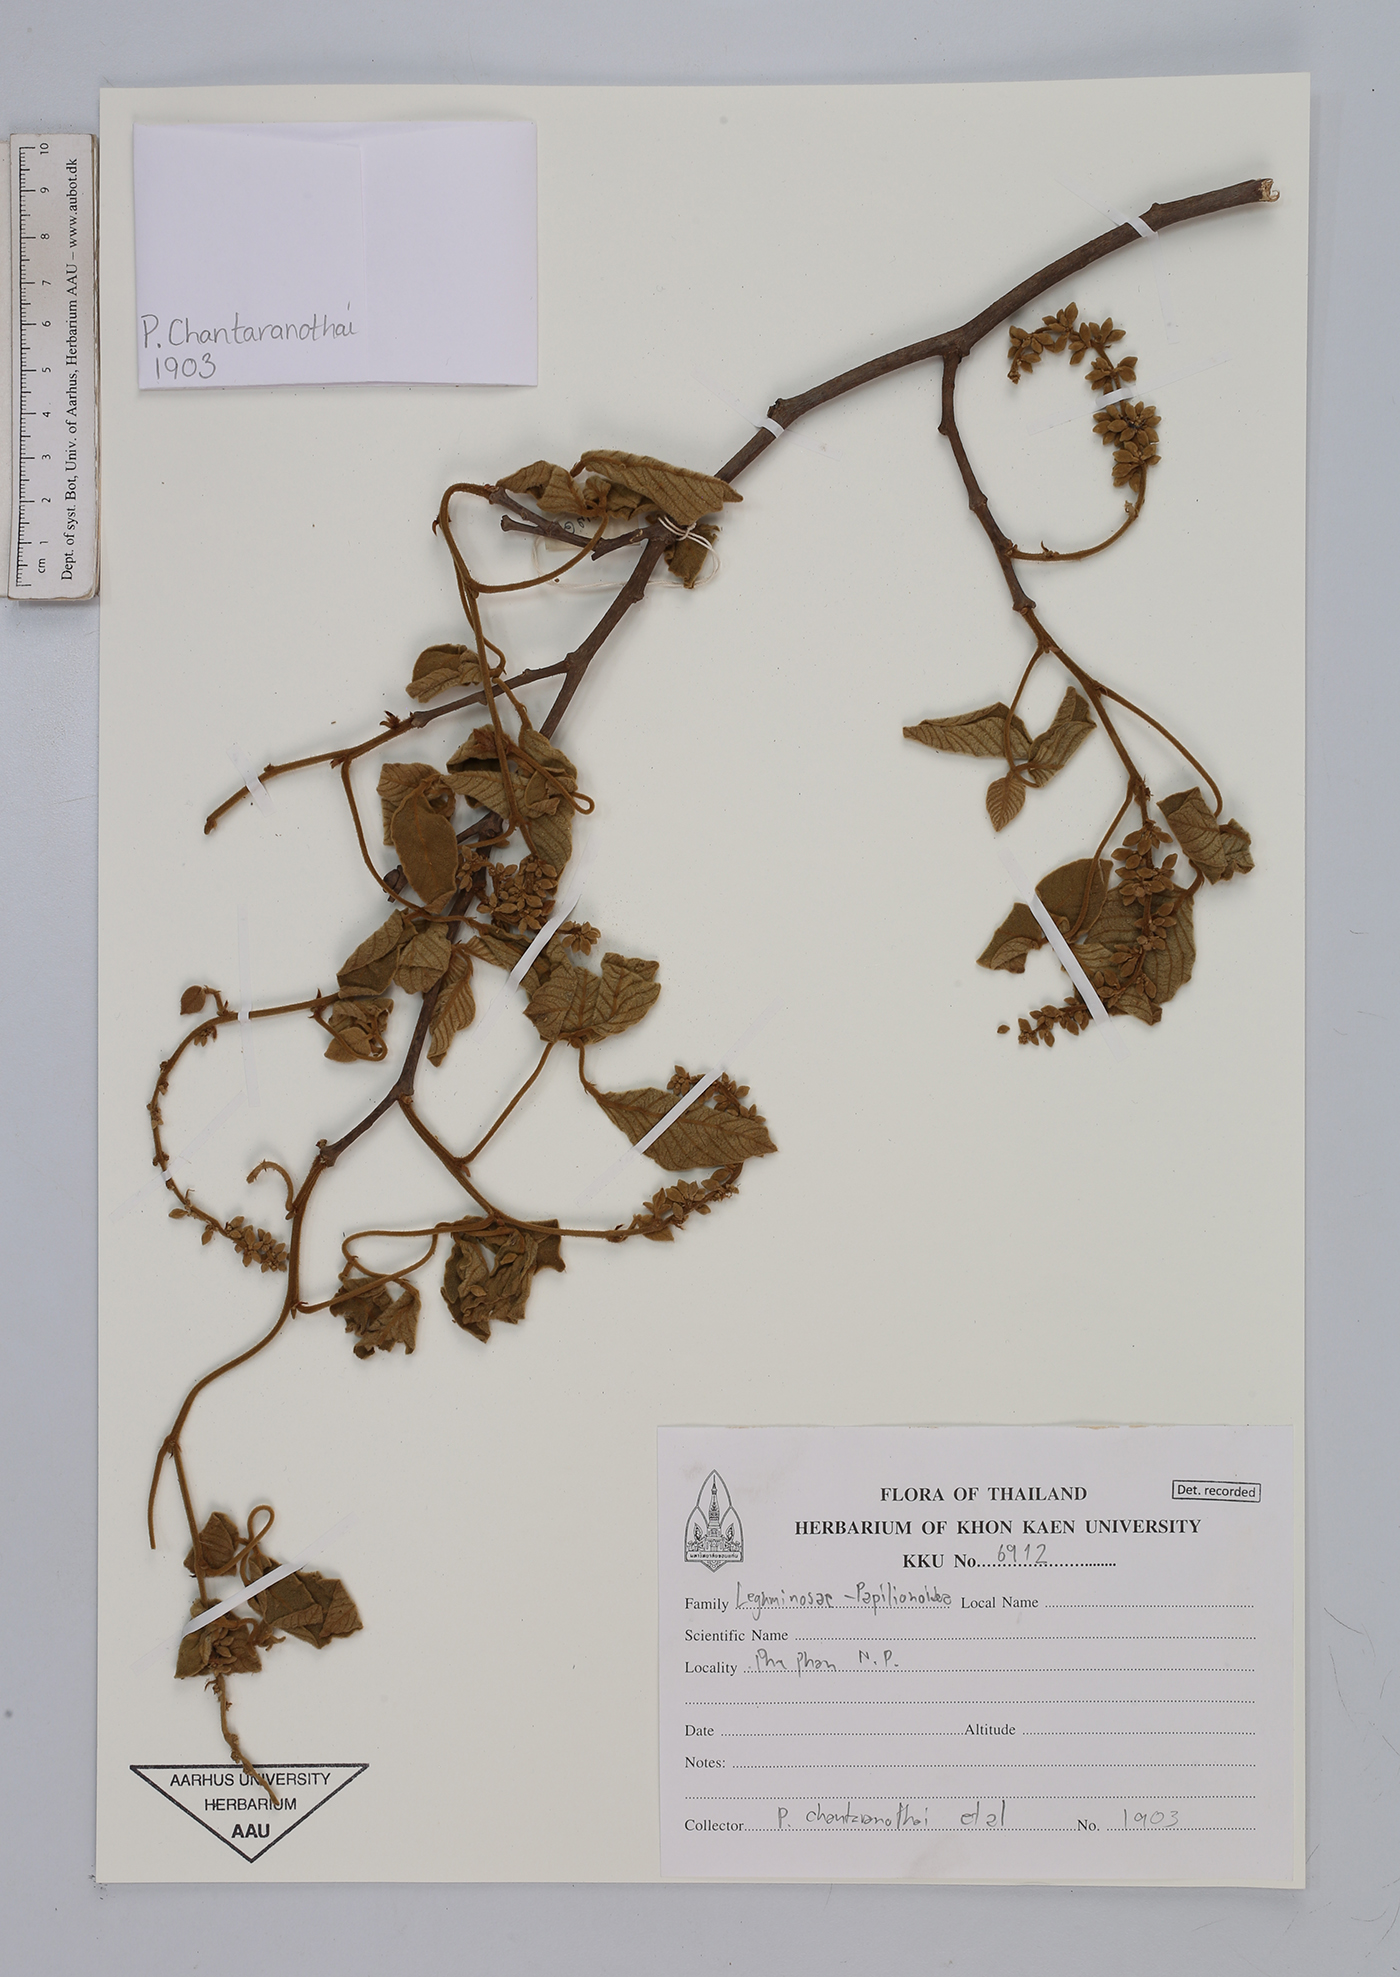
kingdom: Plantae
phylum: Tracheophyta
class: Magnoliopsida
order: Fabales
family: Fabaceae
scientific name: Fabaceae
